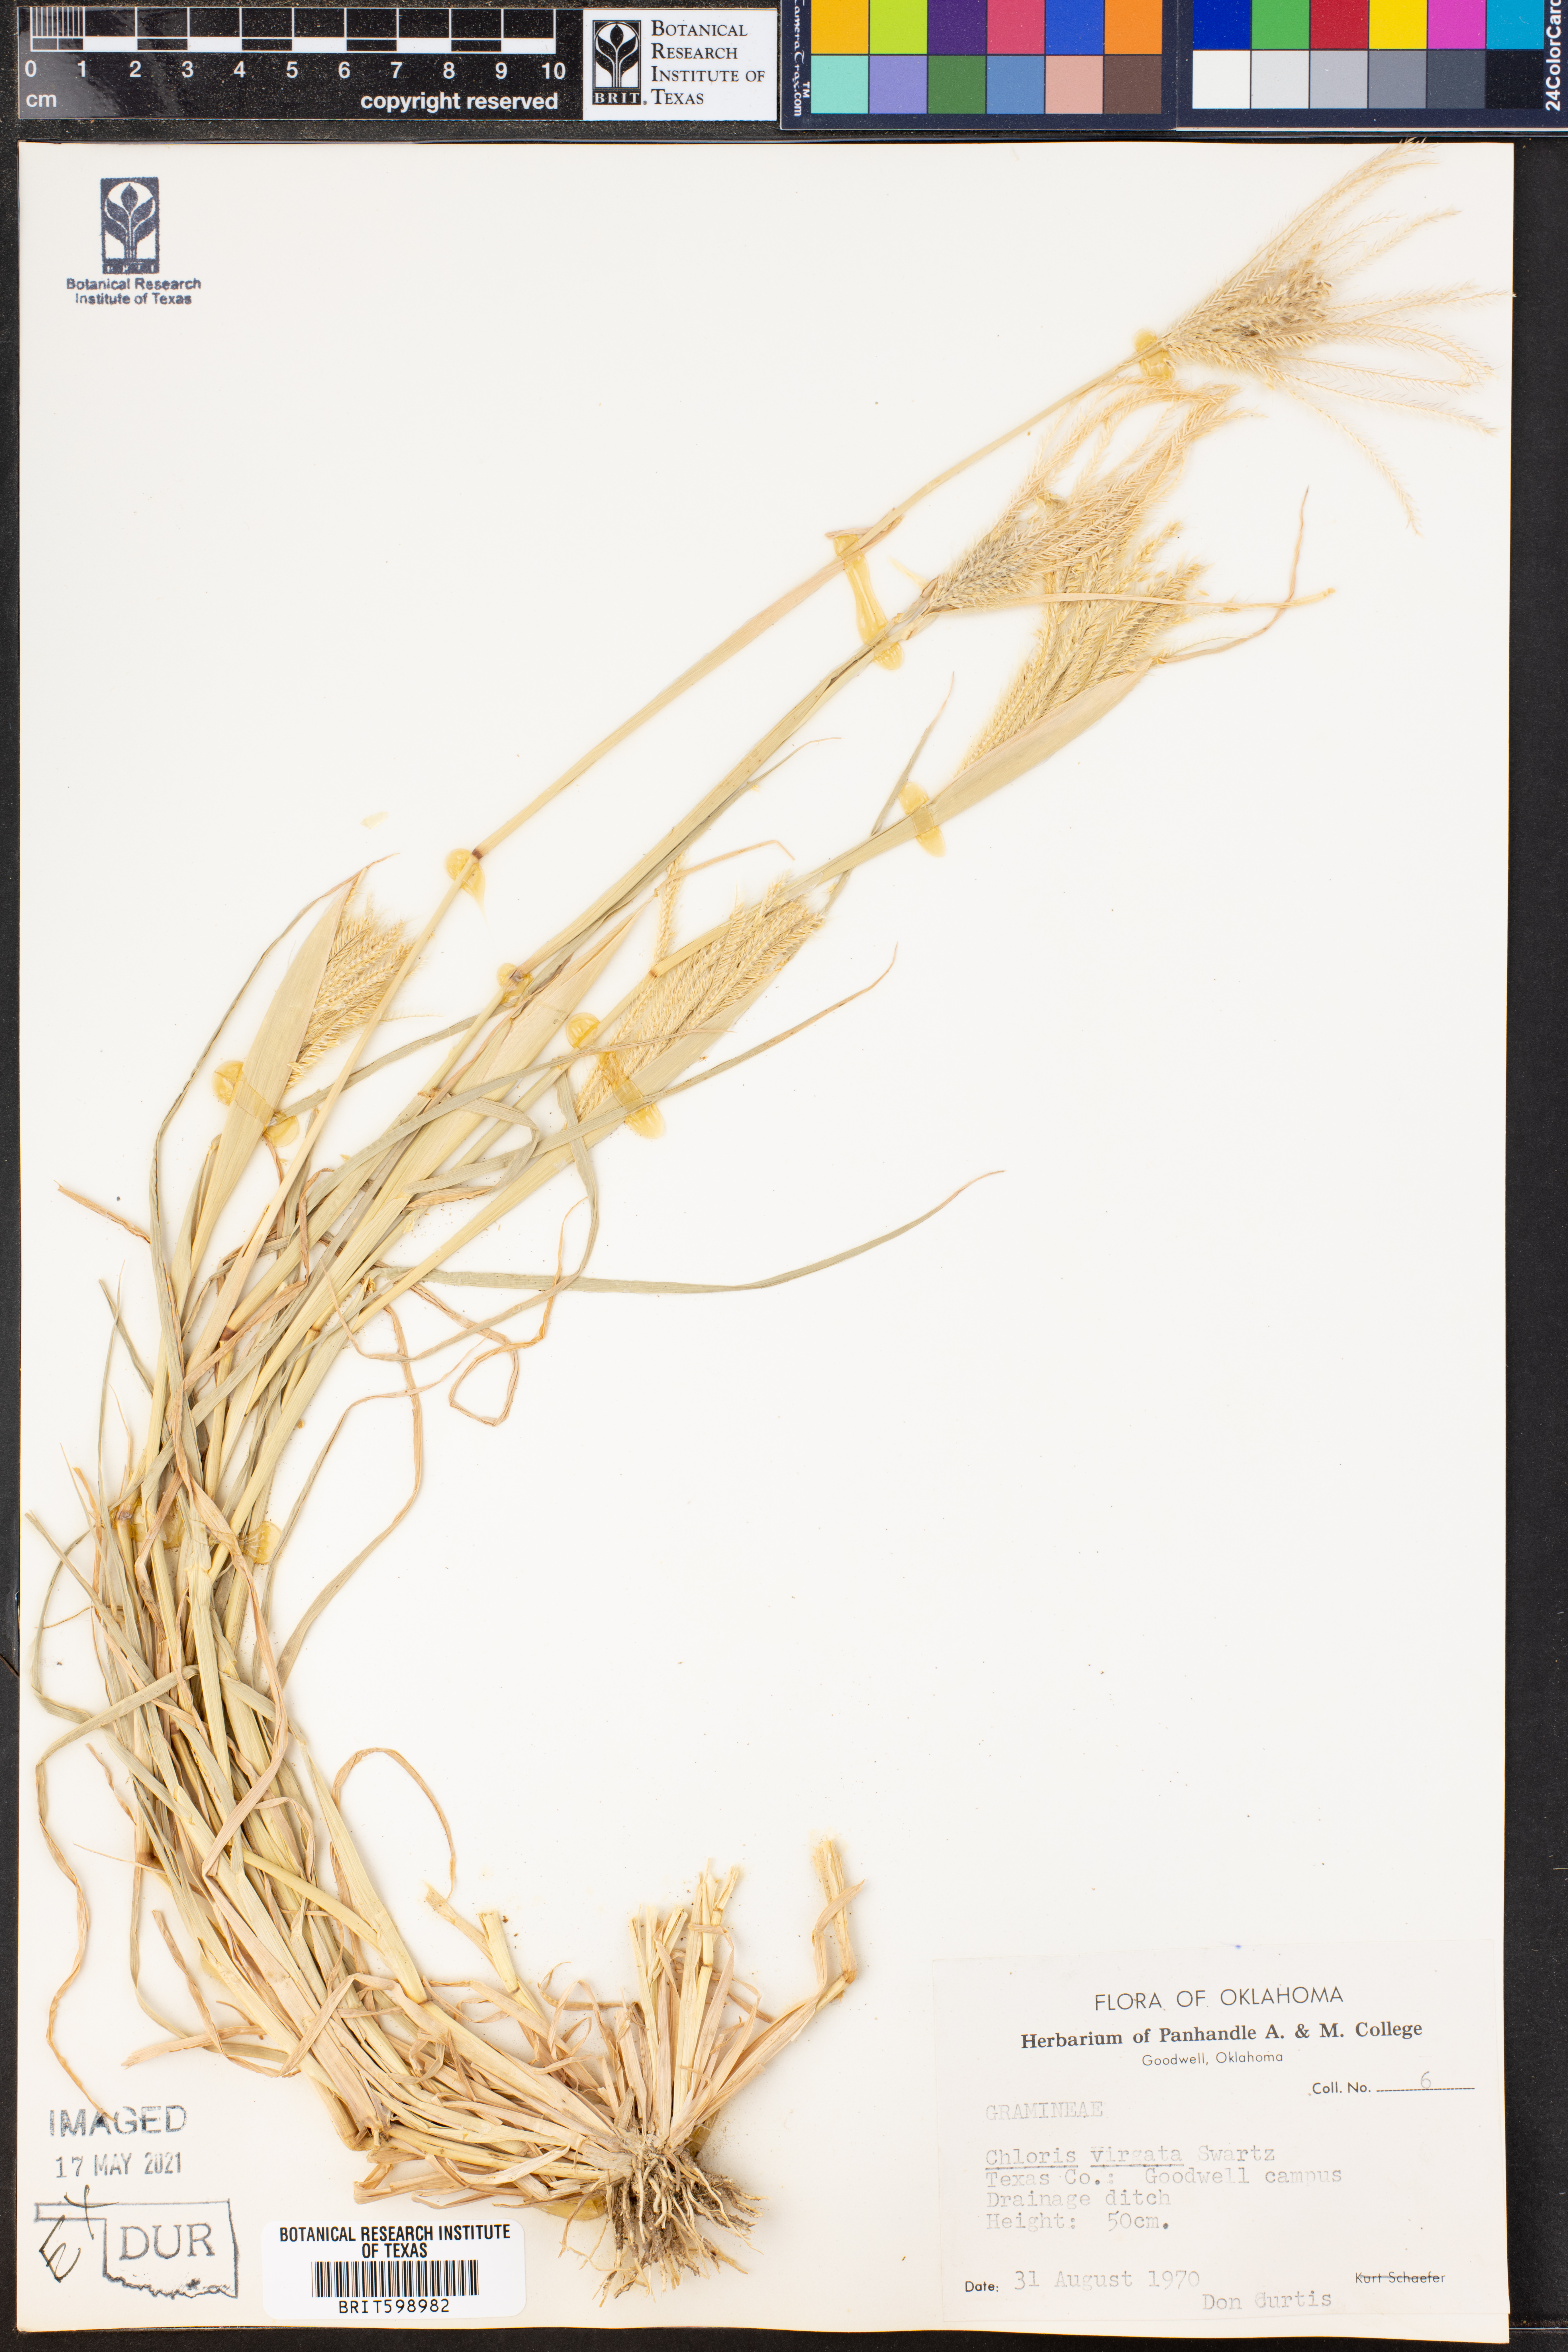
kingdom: Plantae
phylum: Tracheophyta
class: Liliopsida
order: Poales
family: Poaceae
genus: Chloris
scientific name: Chloris virgata
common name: Feathery rhodes-grass
